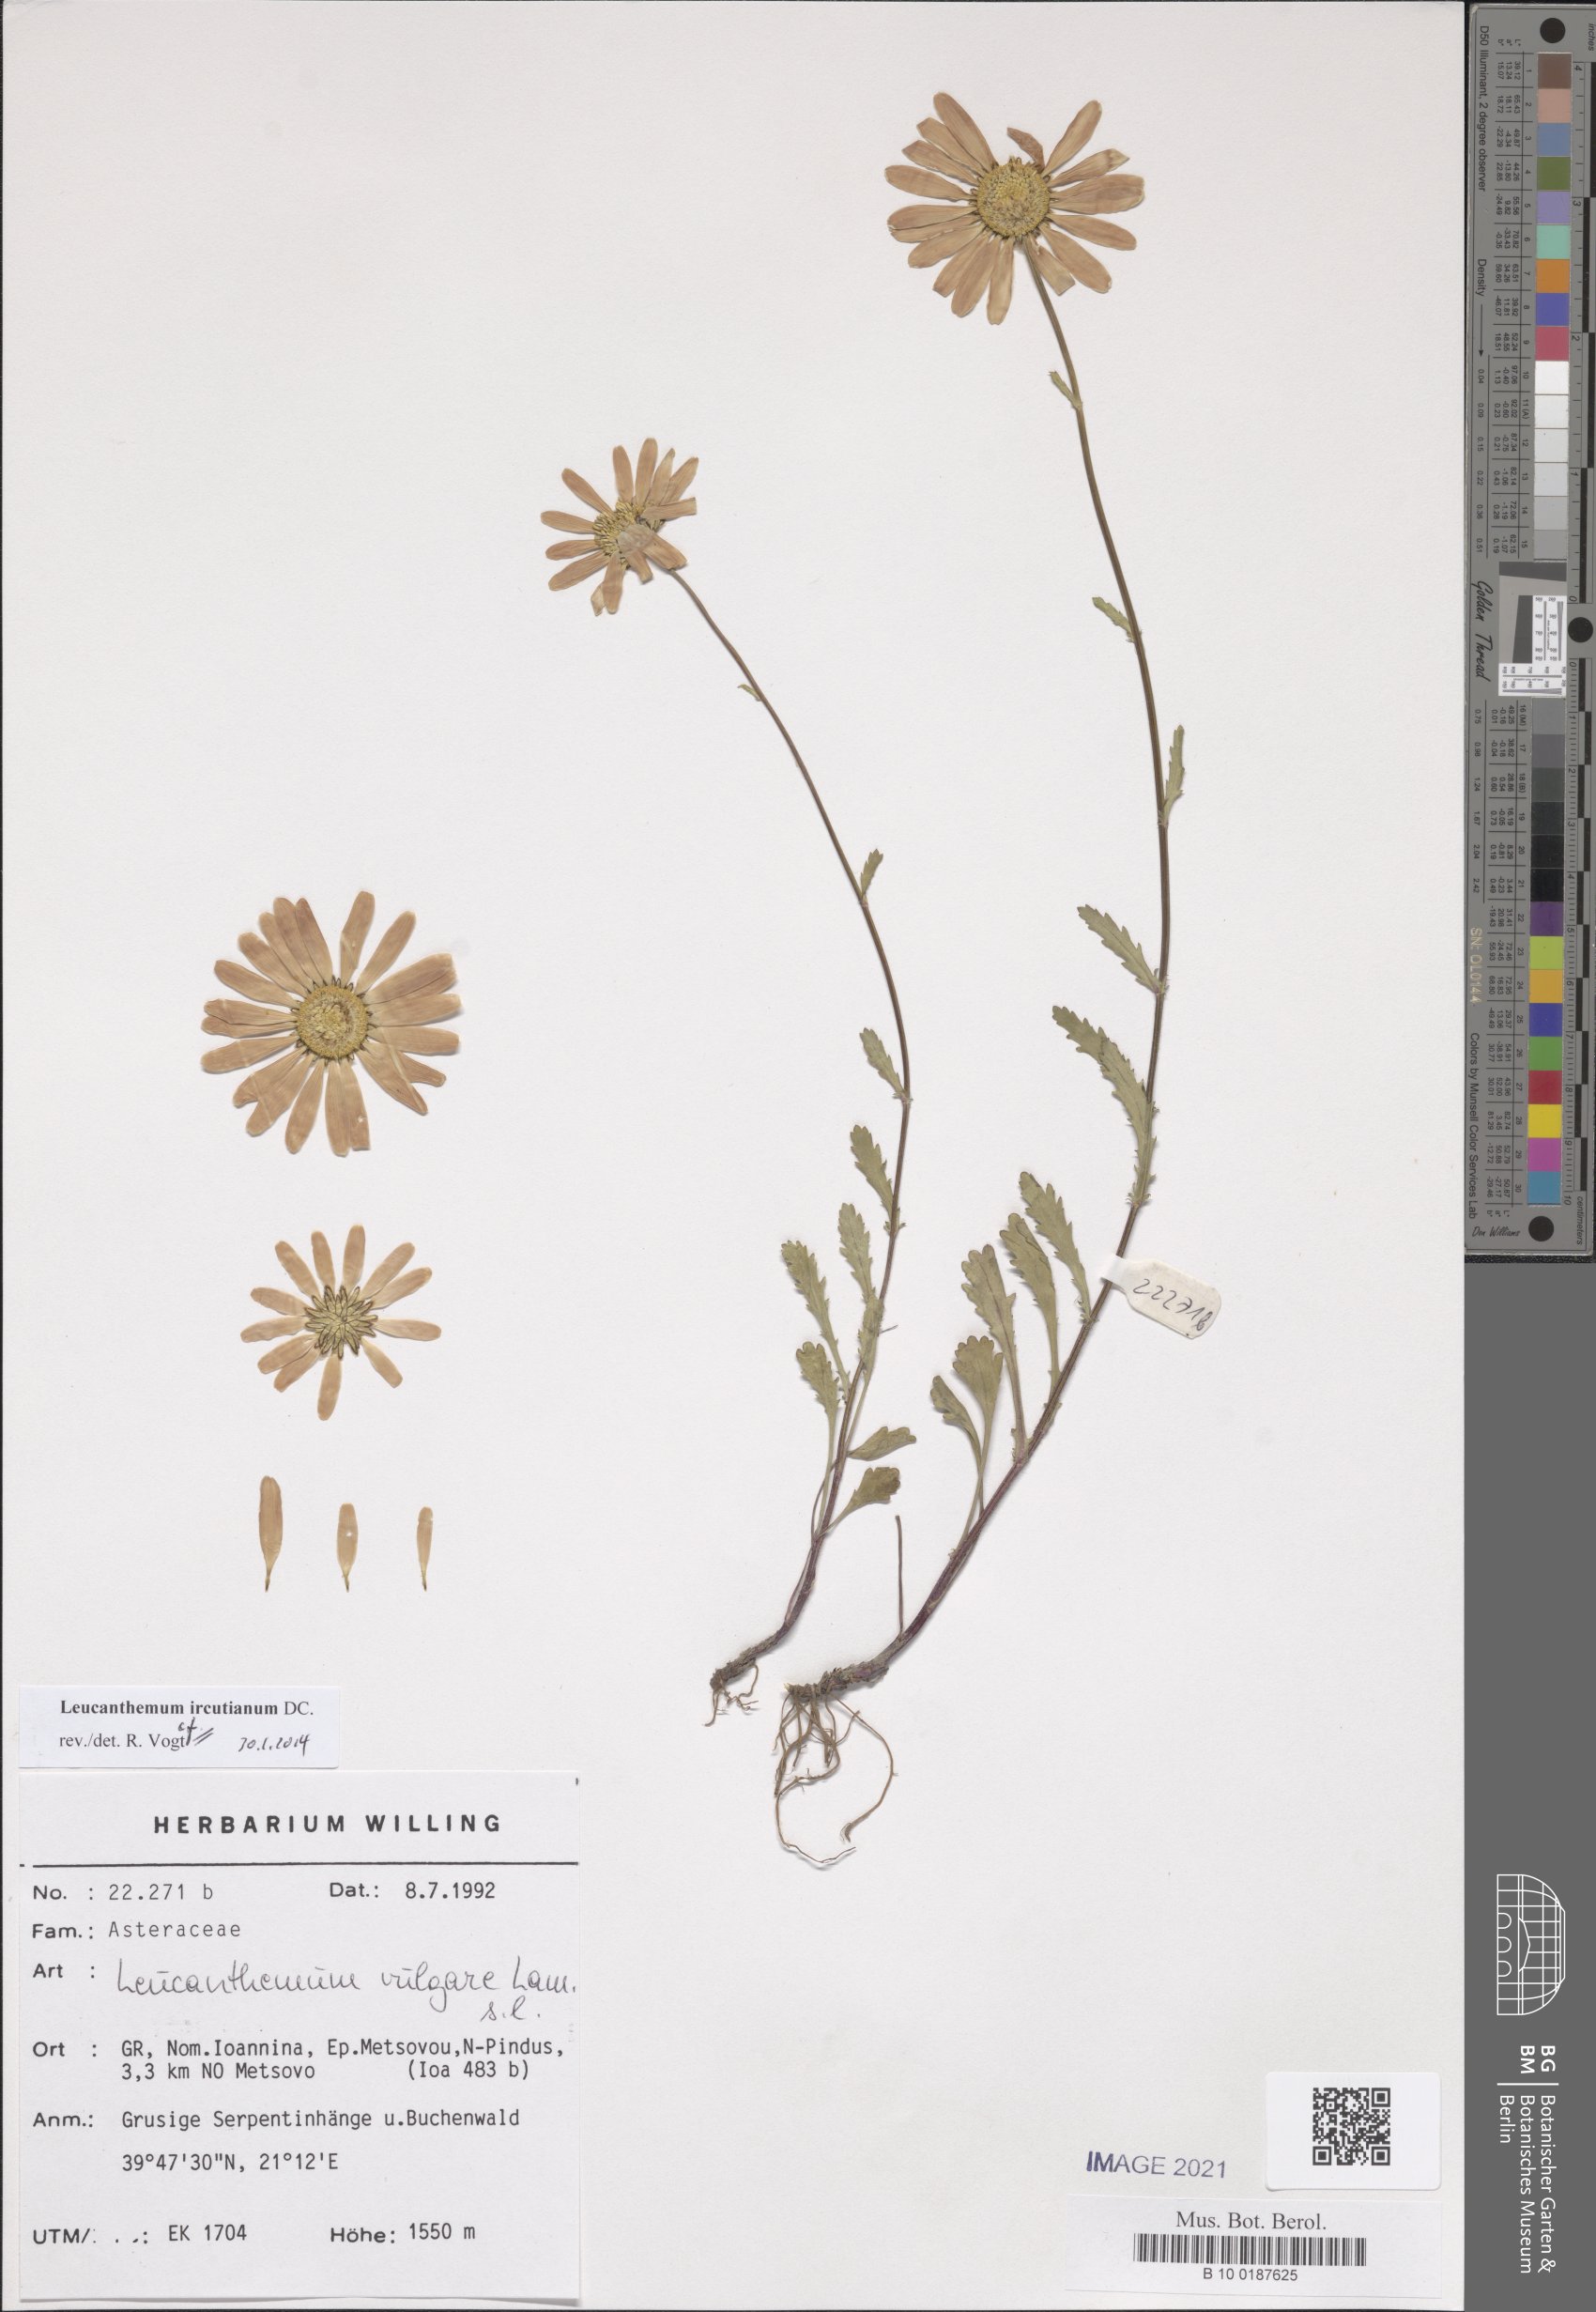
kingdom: Plantae
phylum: Tracheophyta
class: Magnoliopsida
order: Asterales
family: Asteraceae
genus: Leucanthemum
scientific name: Leucanthemum ircutianum
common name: Daisy
